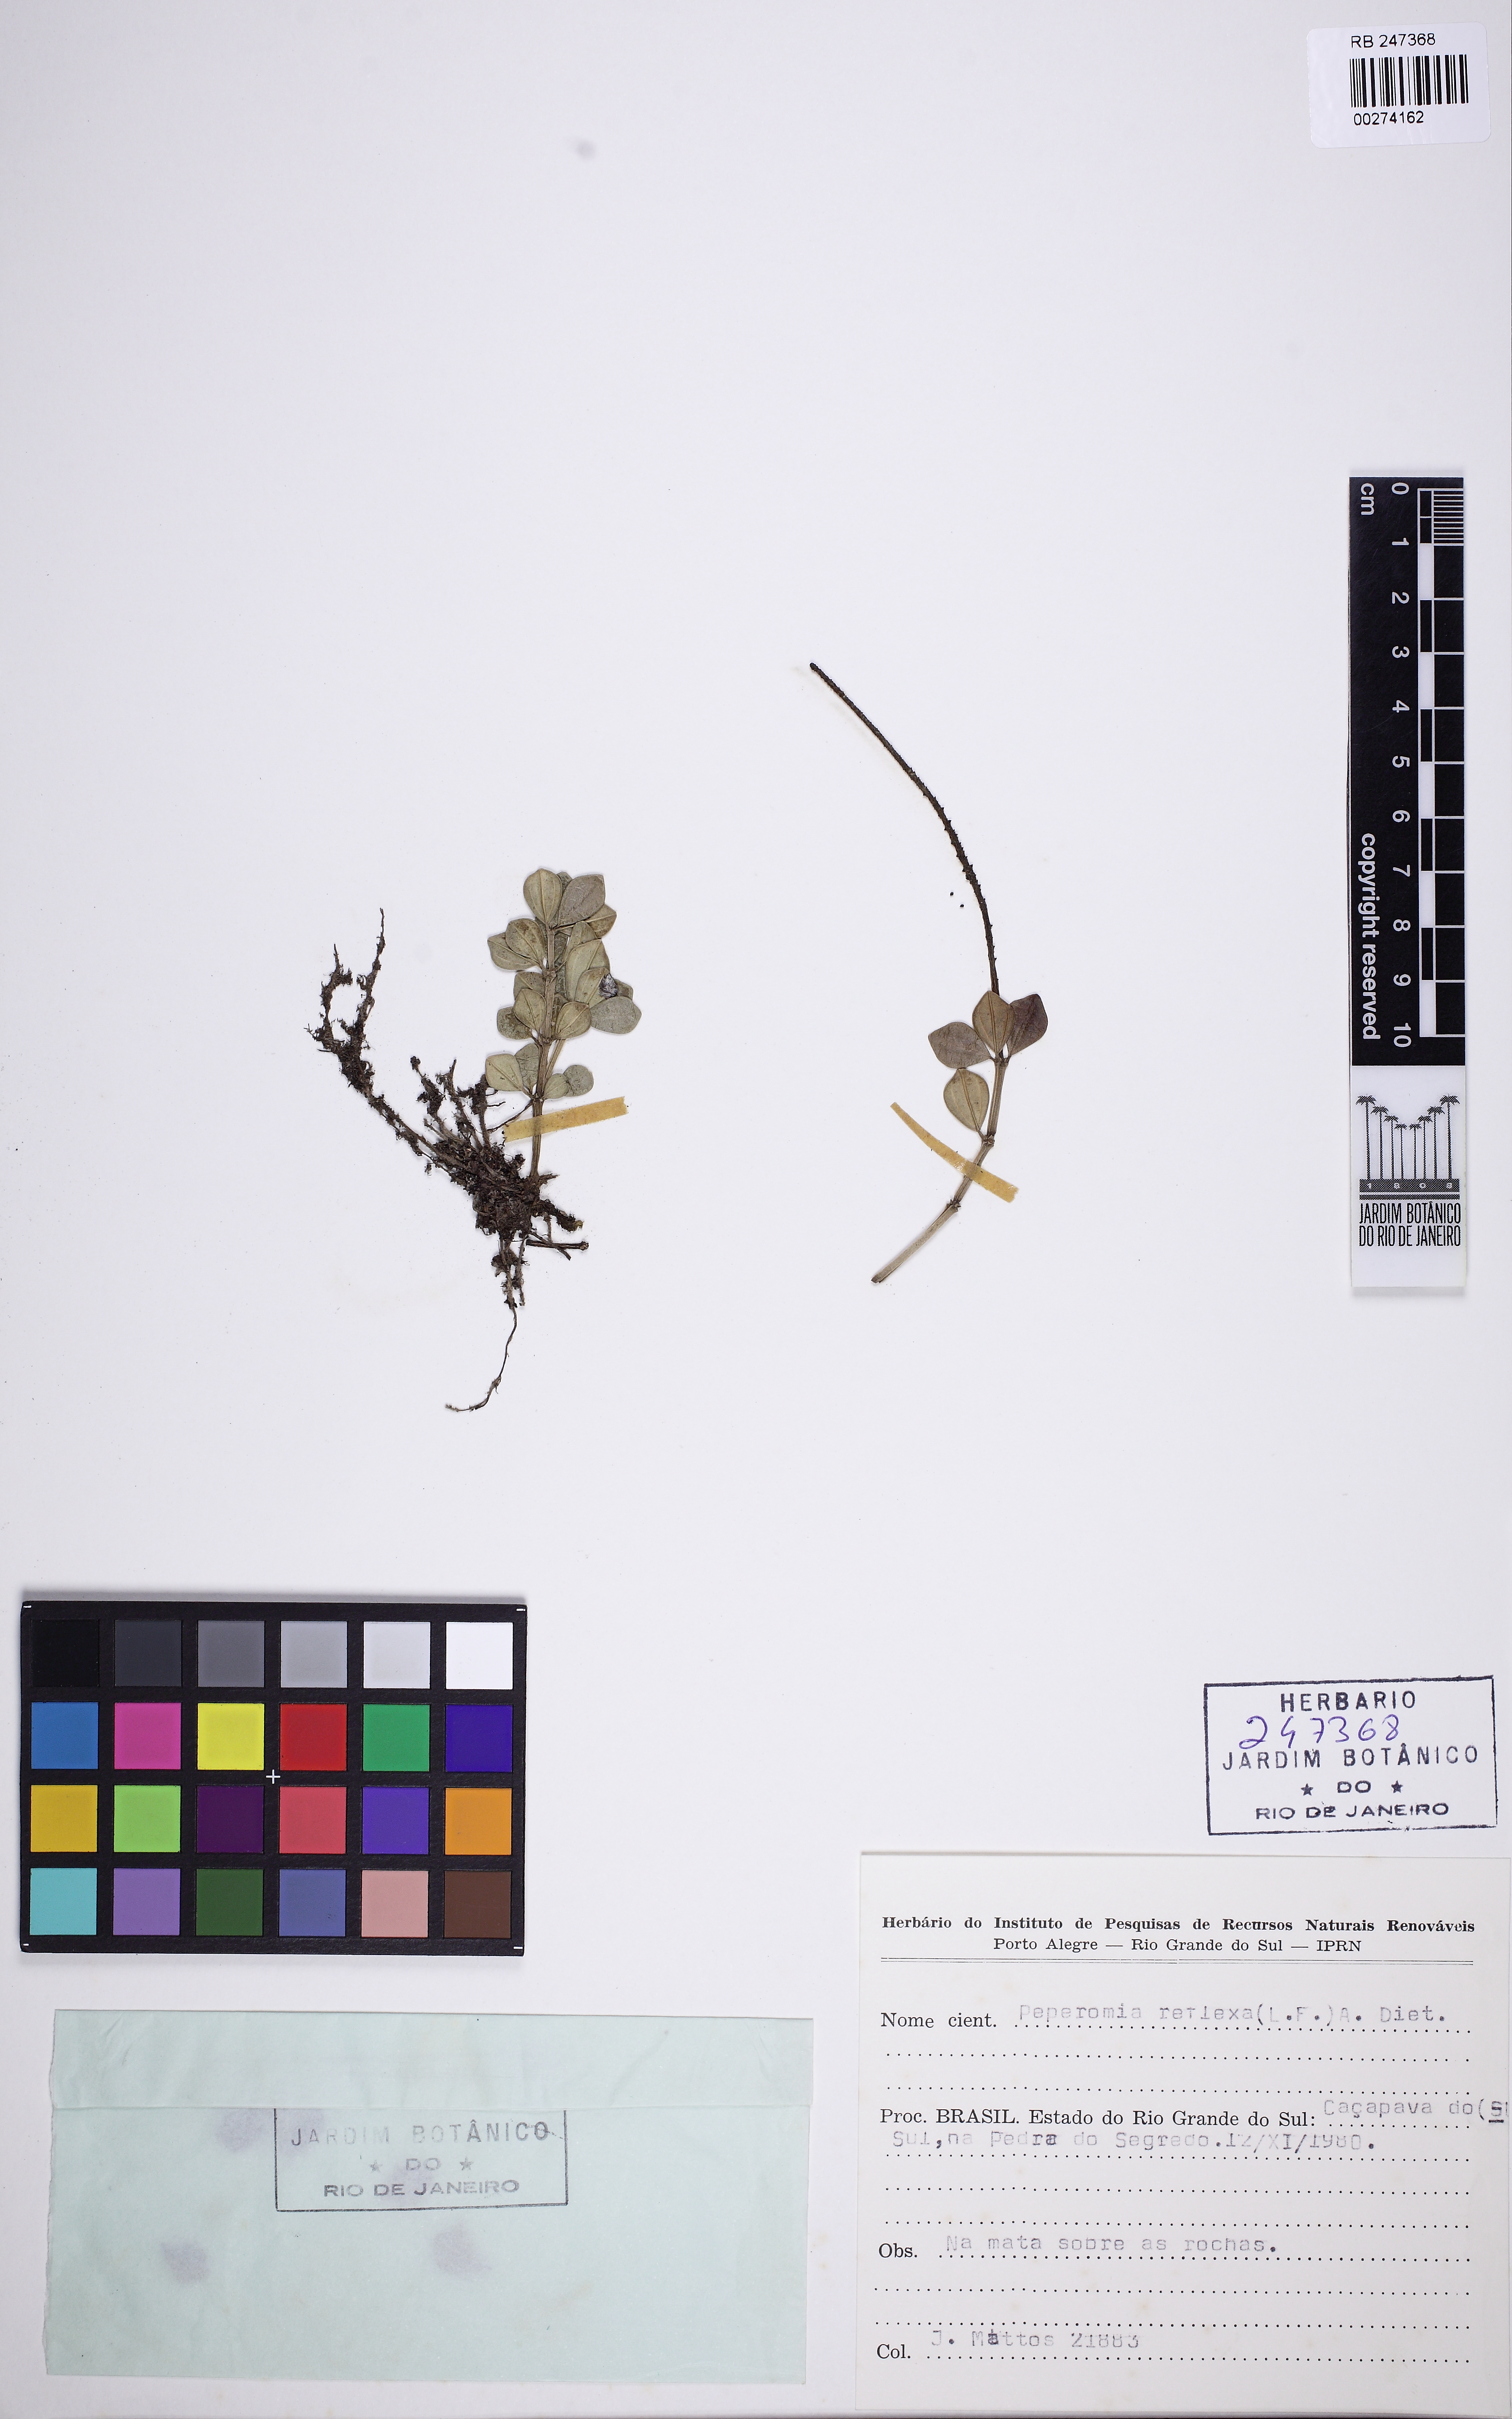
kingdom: Plantae
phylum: Tracheophyta
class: Magnoliopsida
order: Piperales
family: Piperaceae
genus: Peperomia
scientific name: Peperomia tetraphylla
